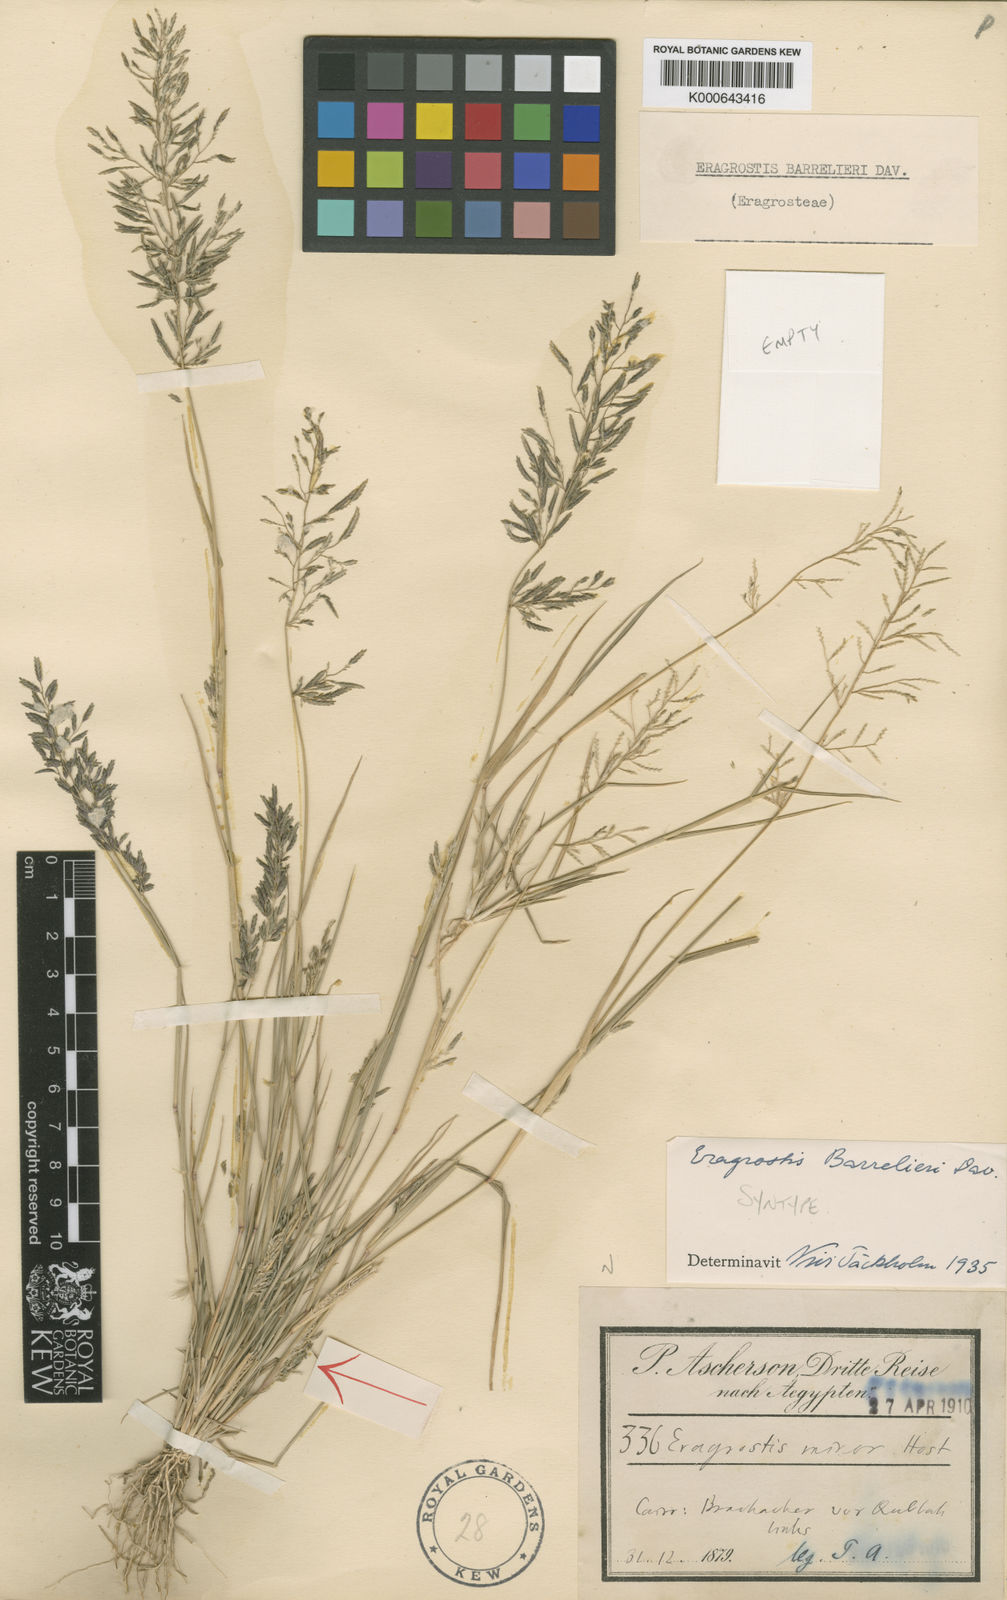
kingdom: Plantae
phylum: Tracheophyta
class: Liliopsida
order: Poales
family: Poaceae
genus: Eragrostis
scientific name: Eragrostis barrelieri
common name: Mediterranean lovegrass
